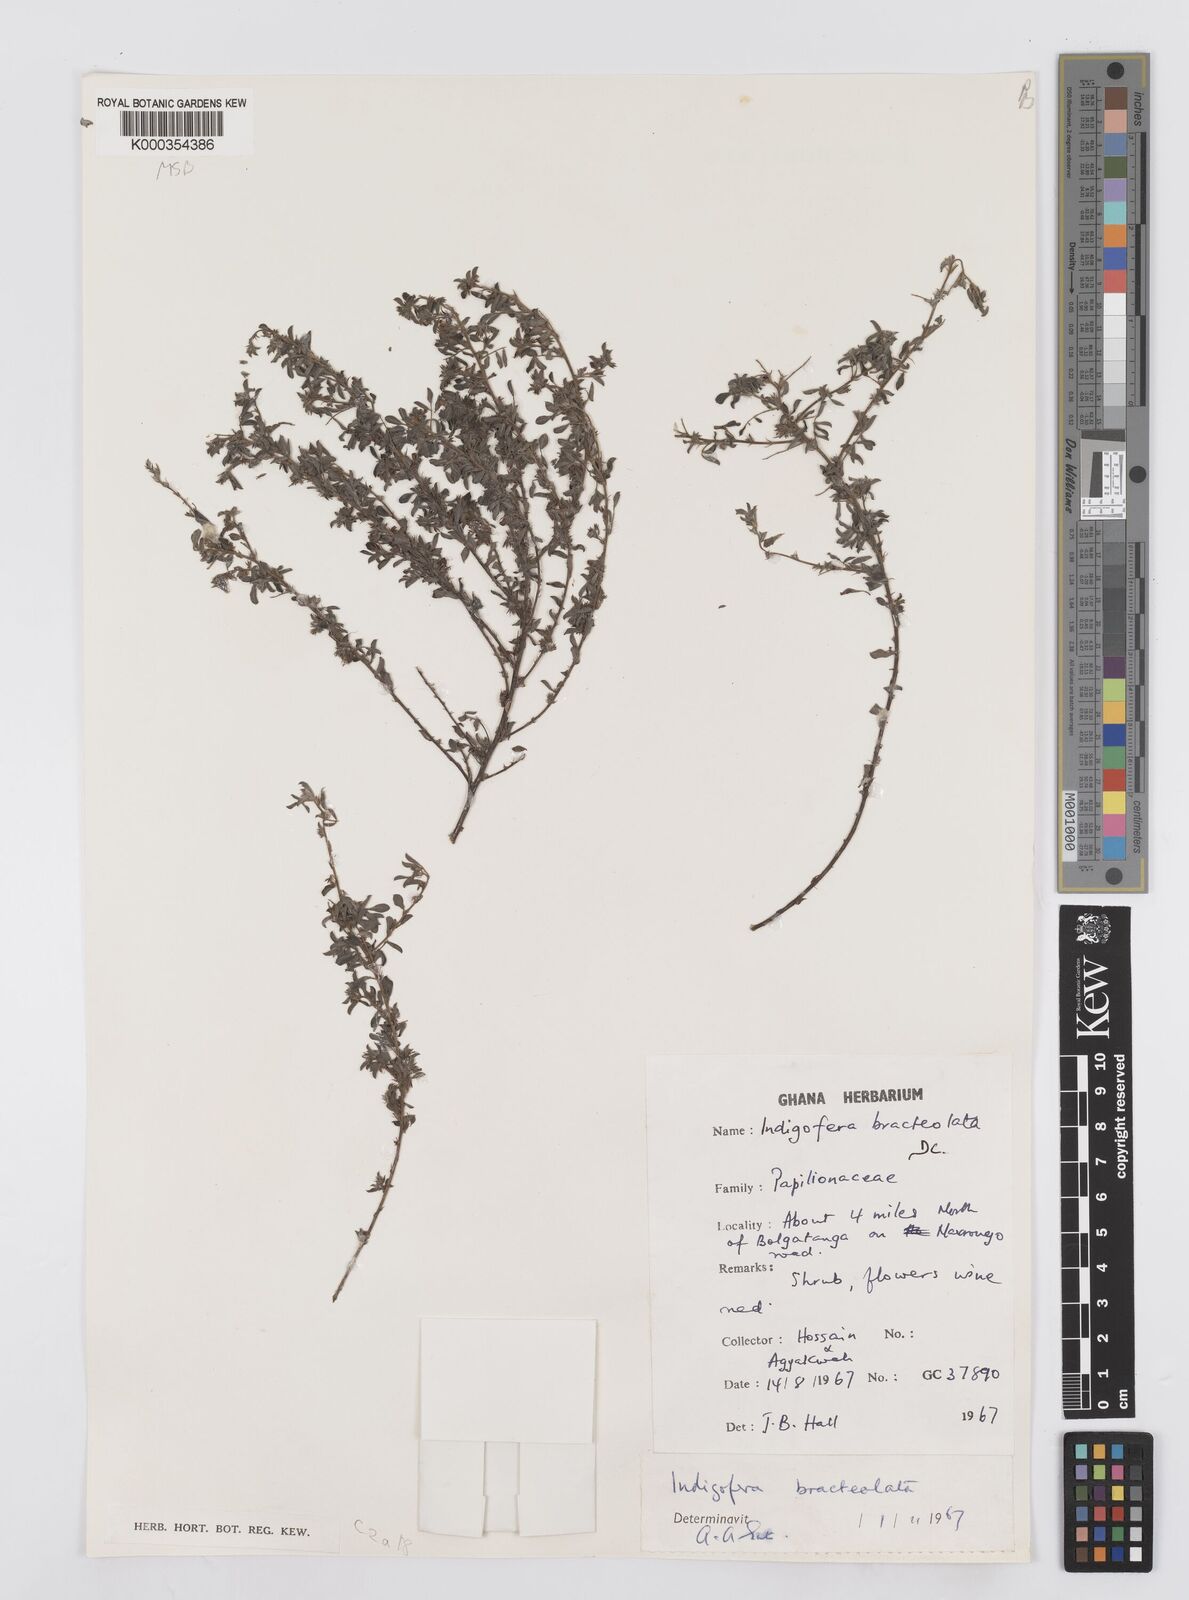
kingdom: Plantae
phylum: Tracheophyta
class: Magnoliopsida
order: Fabales
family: Fabaceae
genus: Indigofera
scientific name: Indigofera bracteolata
